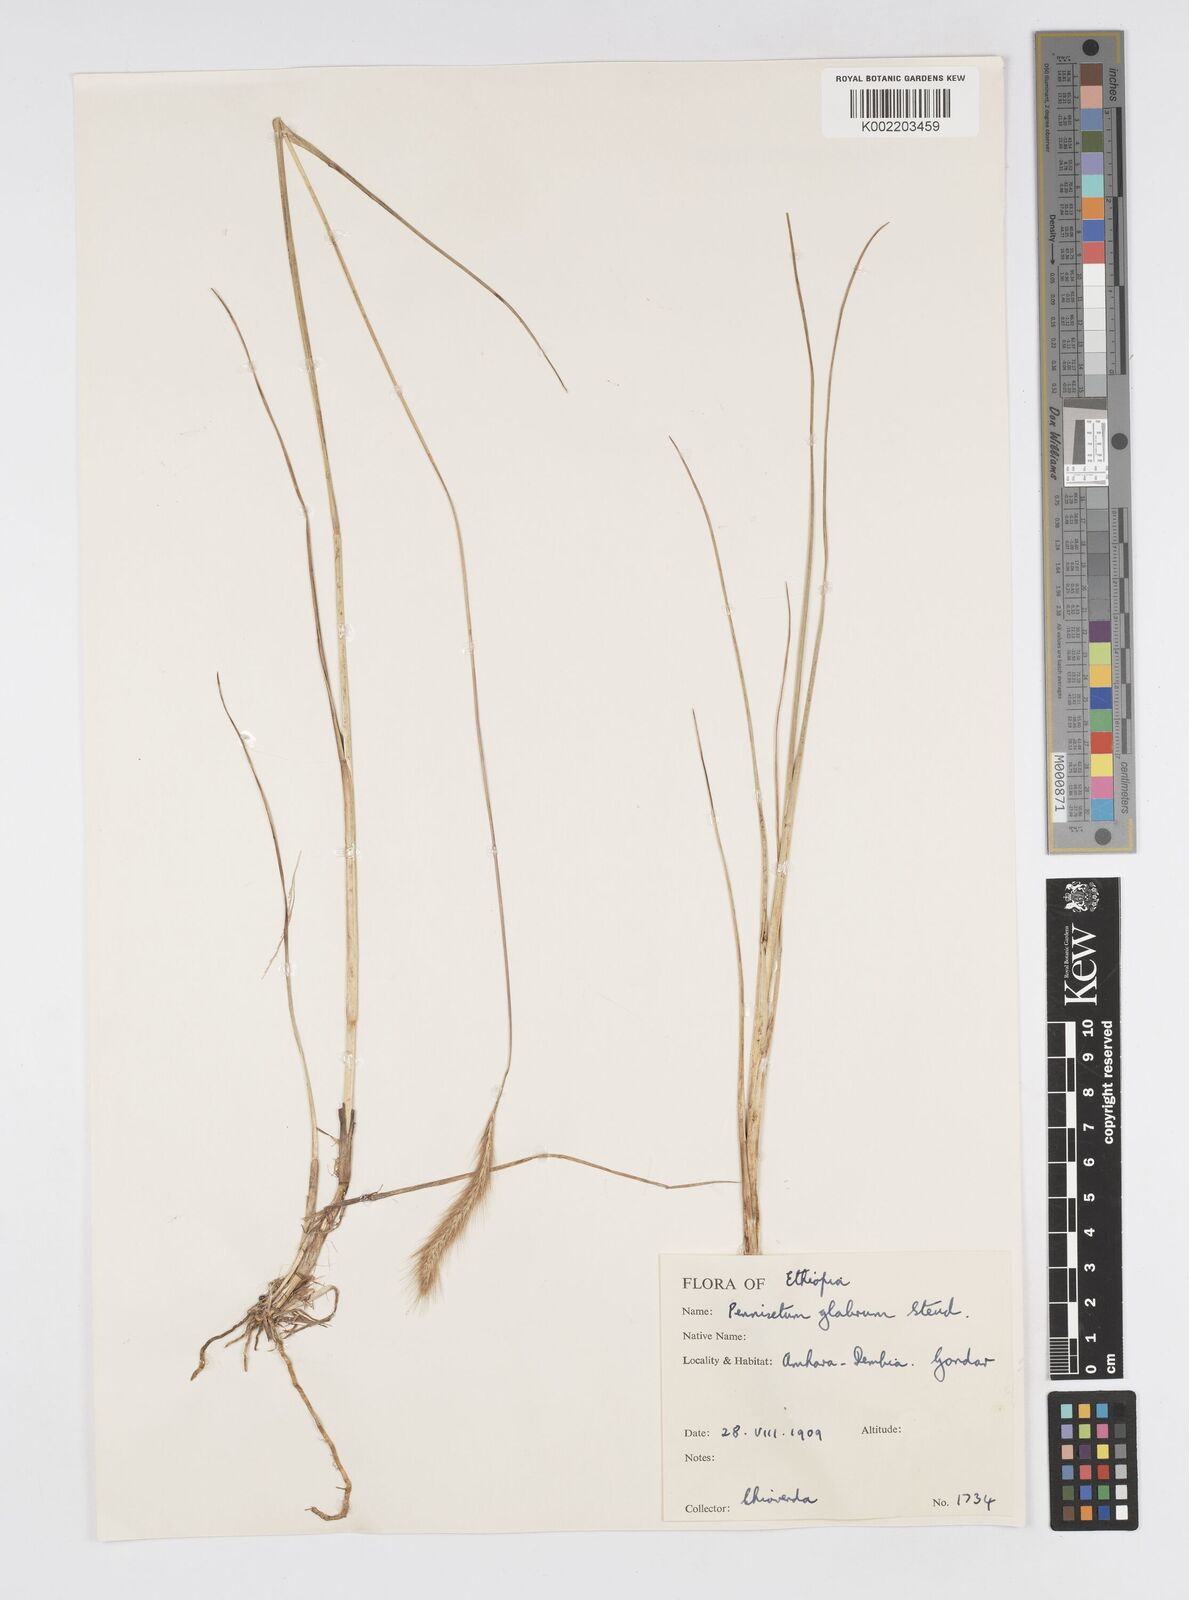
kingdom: Plantae
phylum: Tracheophyta
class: Liliopsida
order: Poales
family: Poaceae
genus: Cenchrus
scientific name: Cenchrus geniculatus
